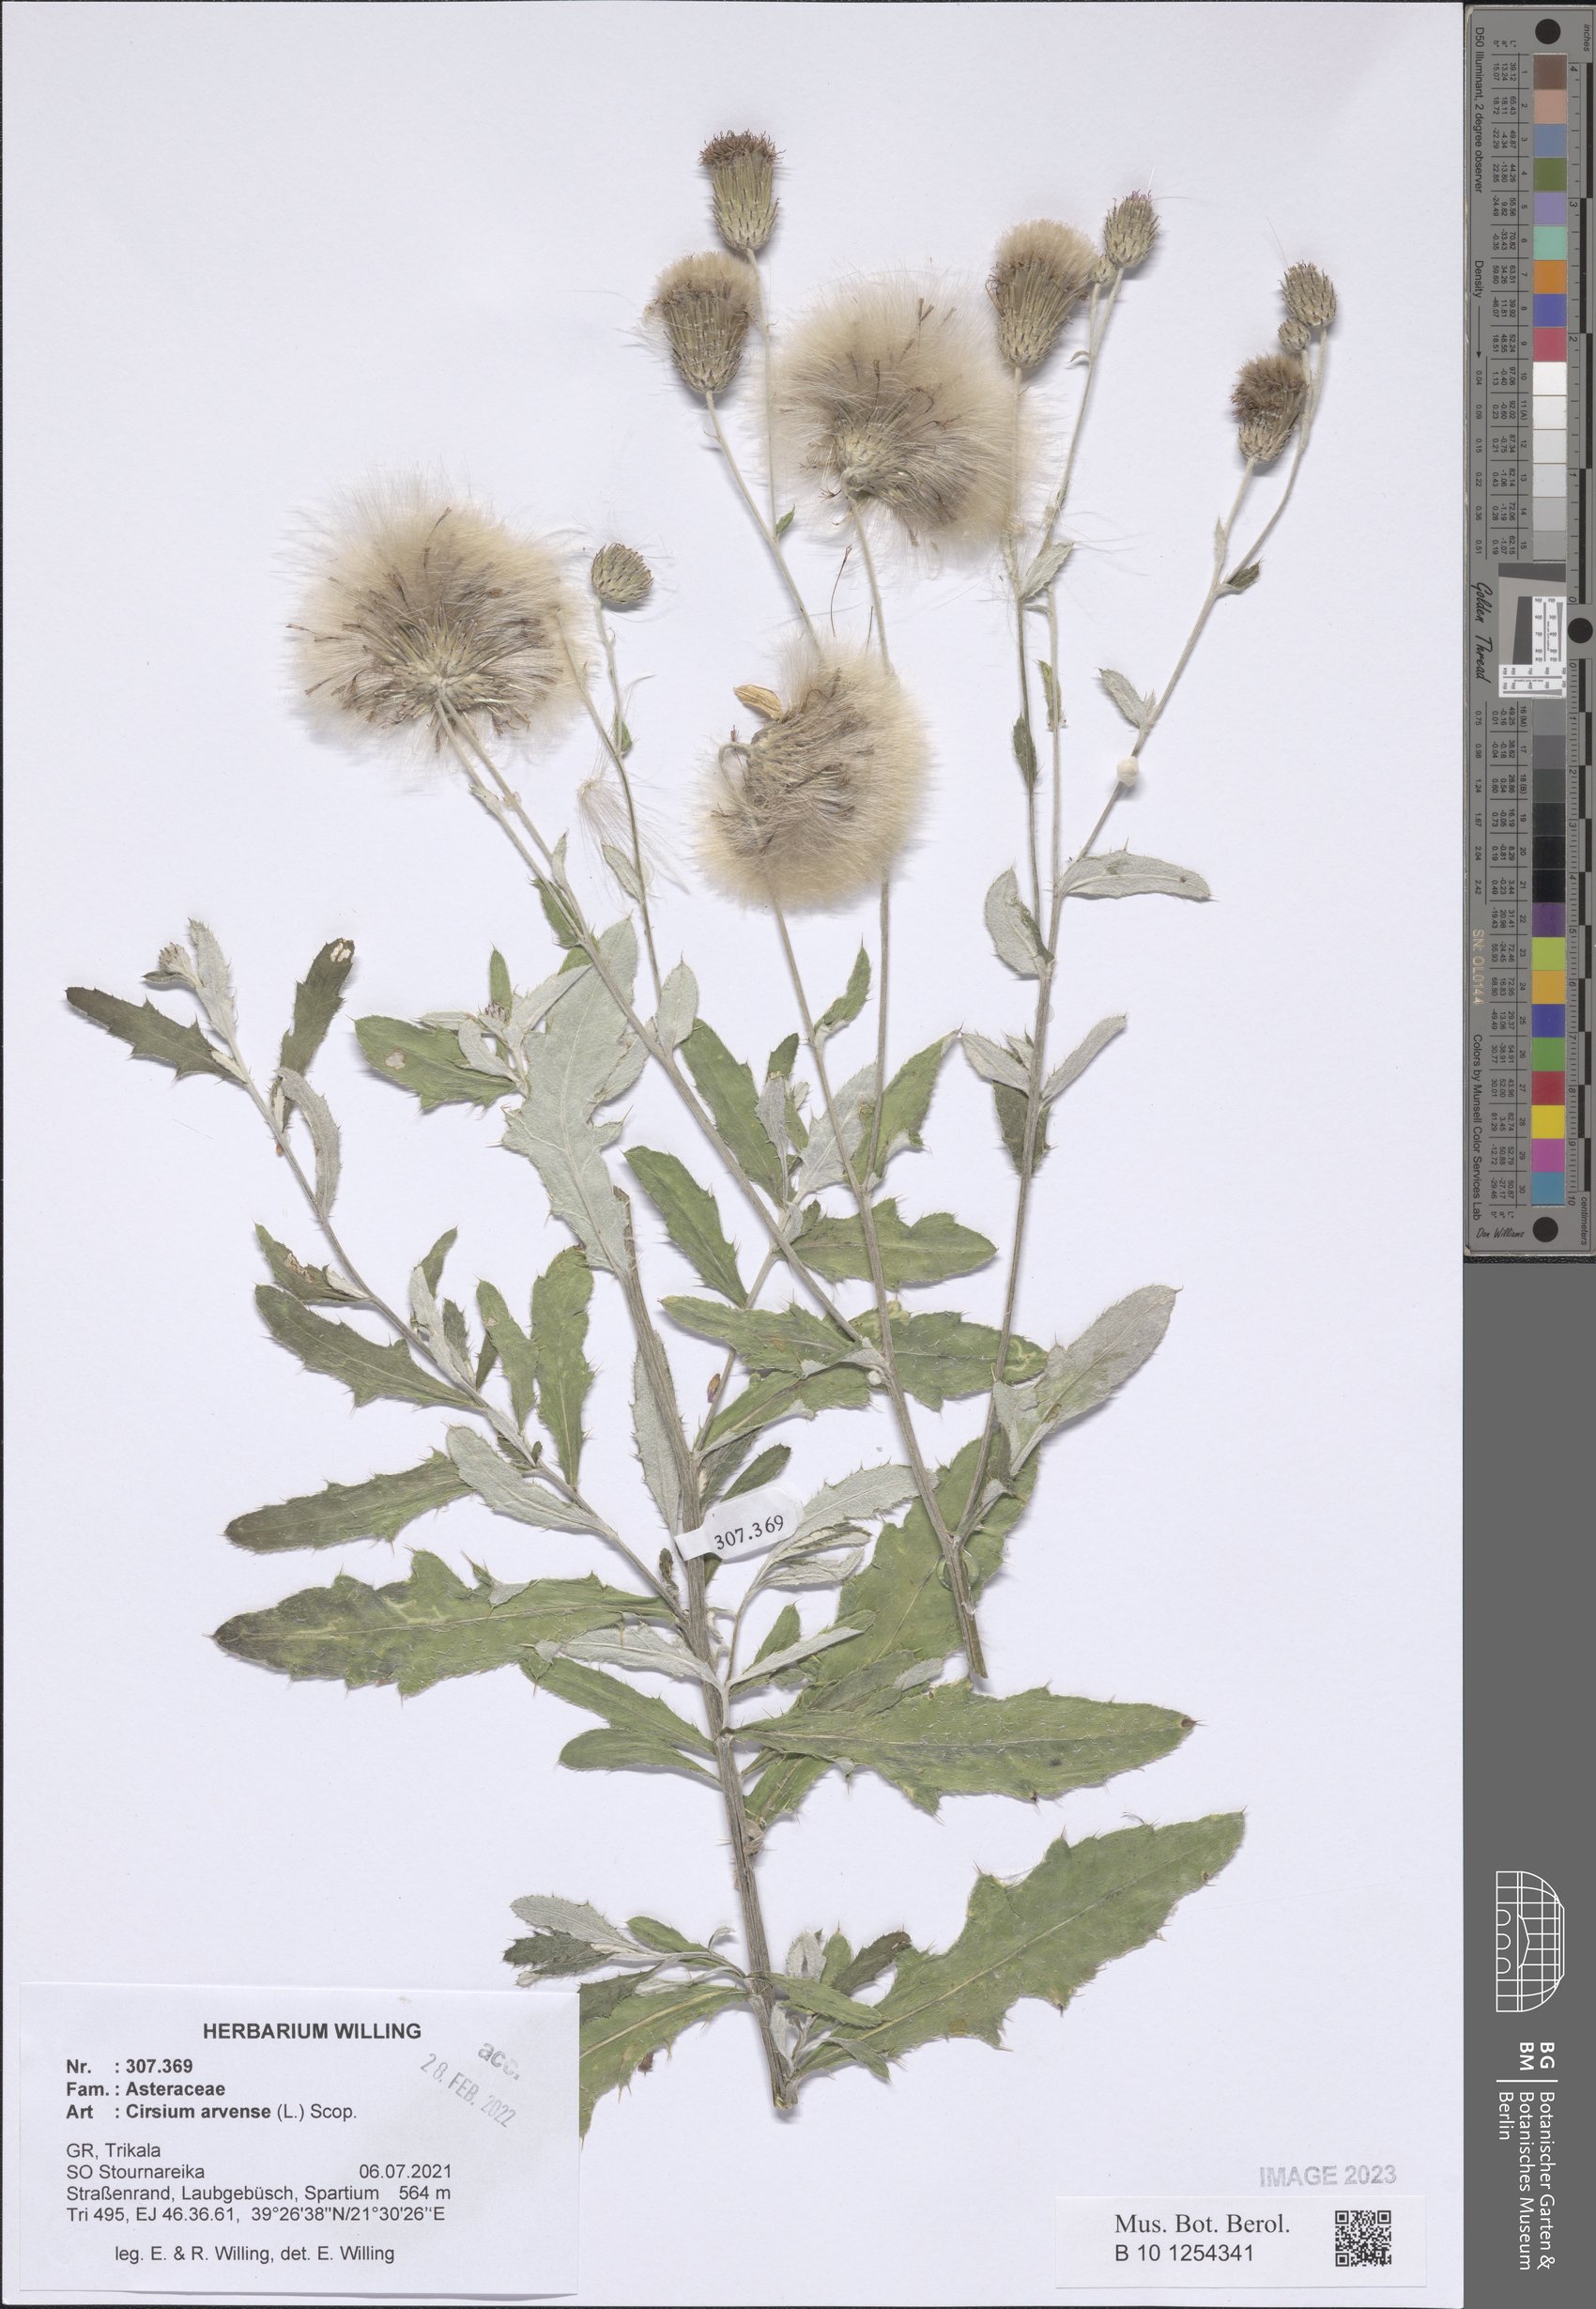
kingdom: Plantae
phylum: Tracheophyta
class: Magnoliopsida
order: Asterales
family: Asteraceae
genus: Cirsium
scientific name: Cirsium arvense
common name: Creeping thistle
